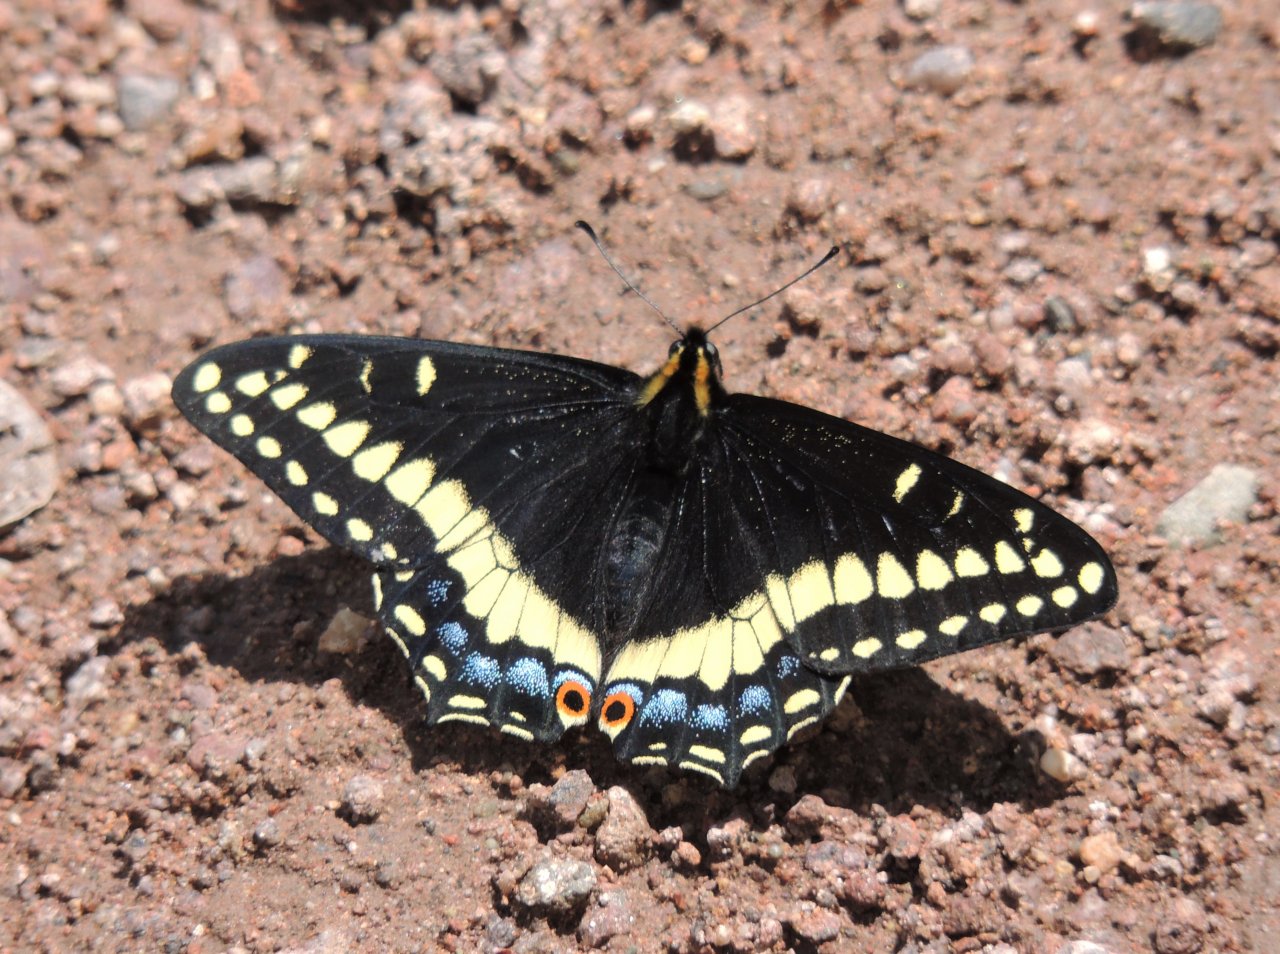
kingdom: Animalia
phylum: Arthropoda
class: Insecta
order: Lepidoptera
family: Papilionidae
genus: Papilio
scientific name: Papilio indra
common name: Indra Swallowtail
